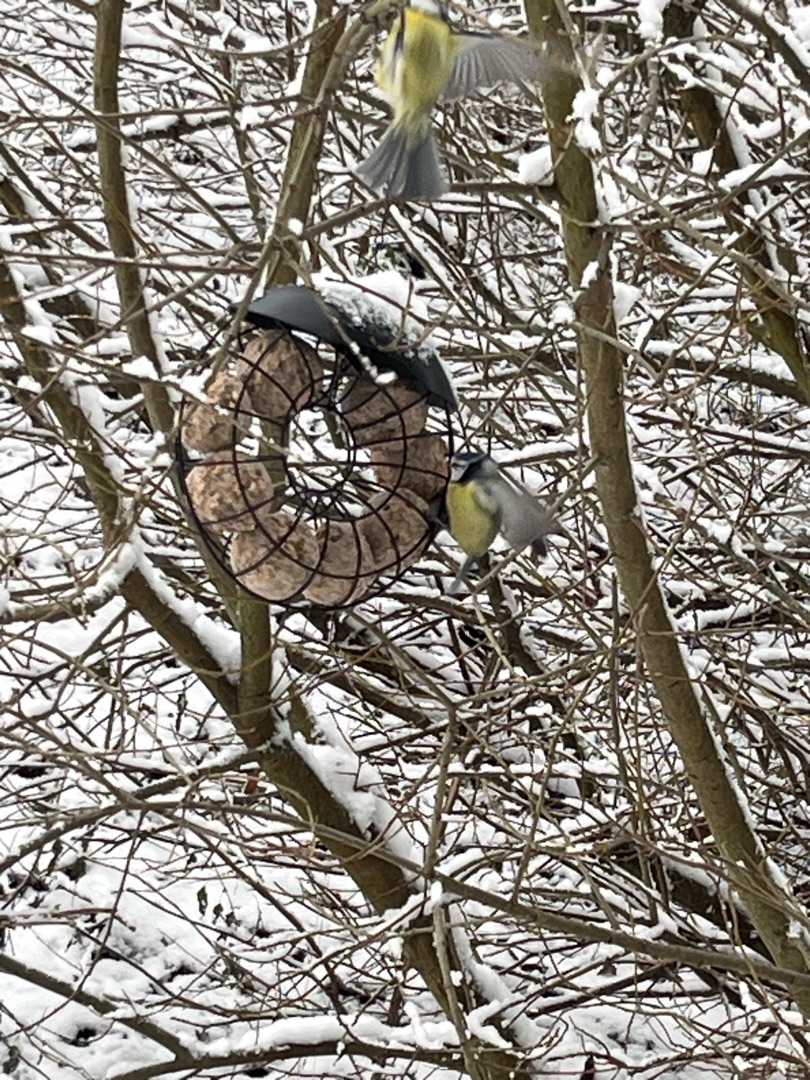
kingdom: Animalia
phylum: Chordata
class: Aves
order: Passeriformes
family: Paridae
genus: Cyanistes
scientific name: Cyanistes caeruleus
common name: Blåmejse
